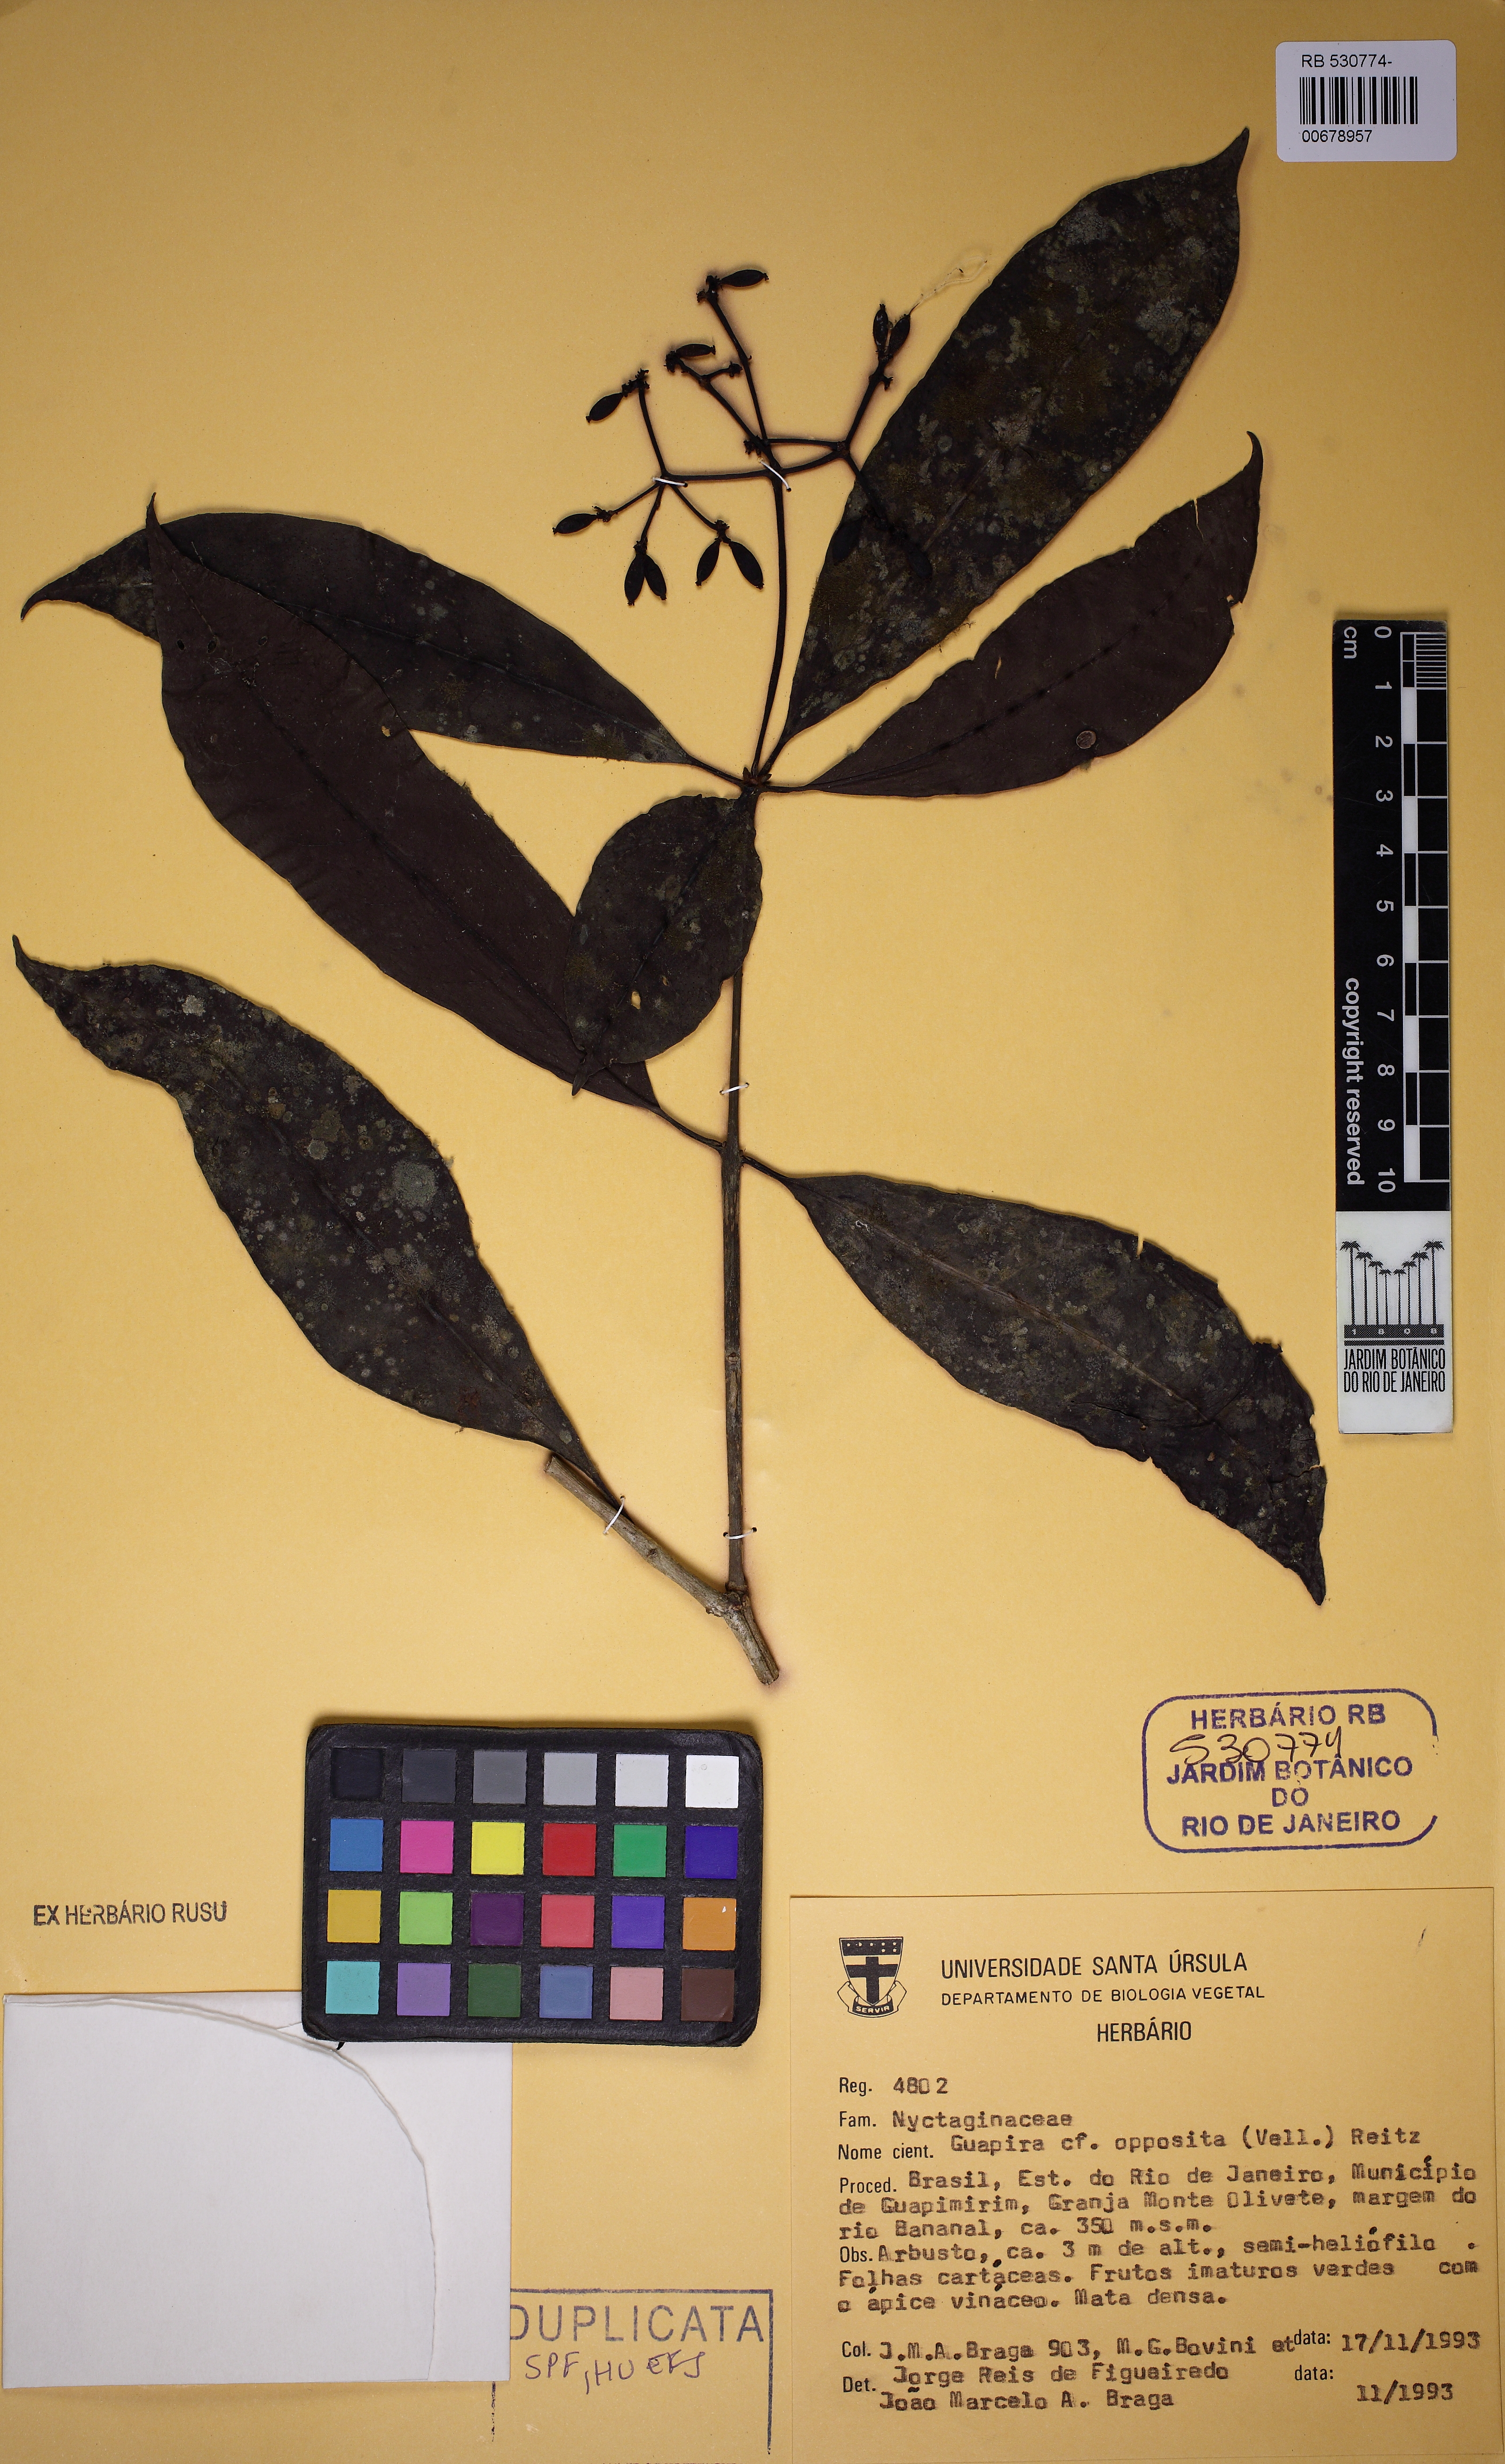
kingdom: Plantae
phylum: Tracheophyta
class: Magnoliopsida
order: Caryophyllales
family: Nyctaginaceae
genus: Guapira
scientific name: Guapira opposita
